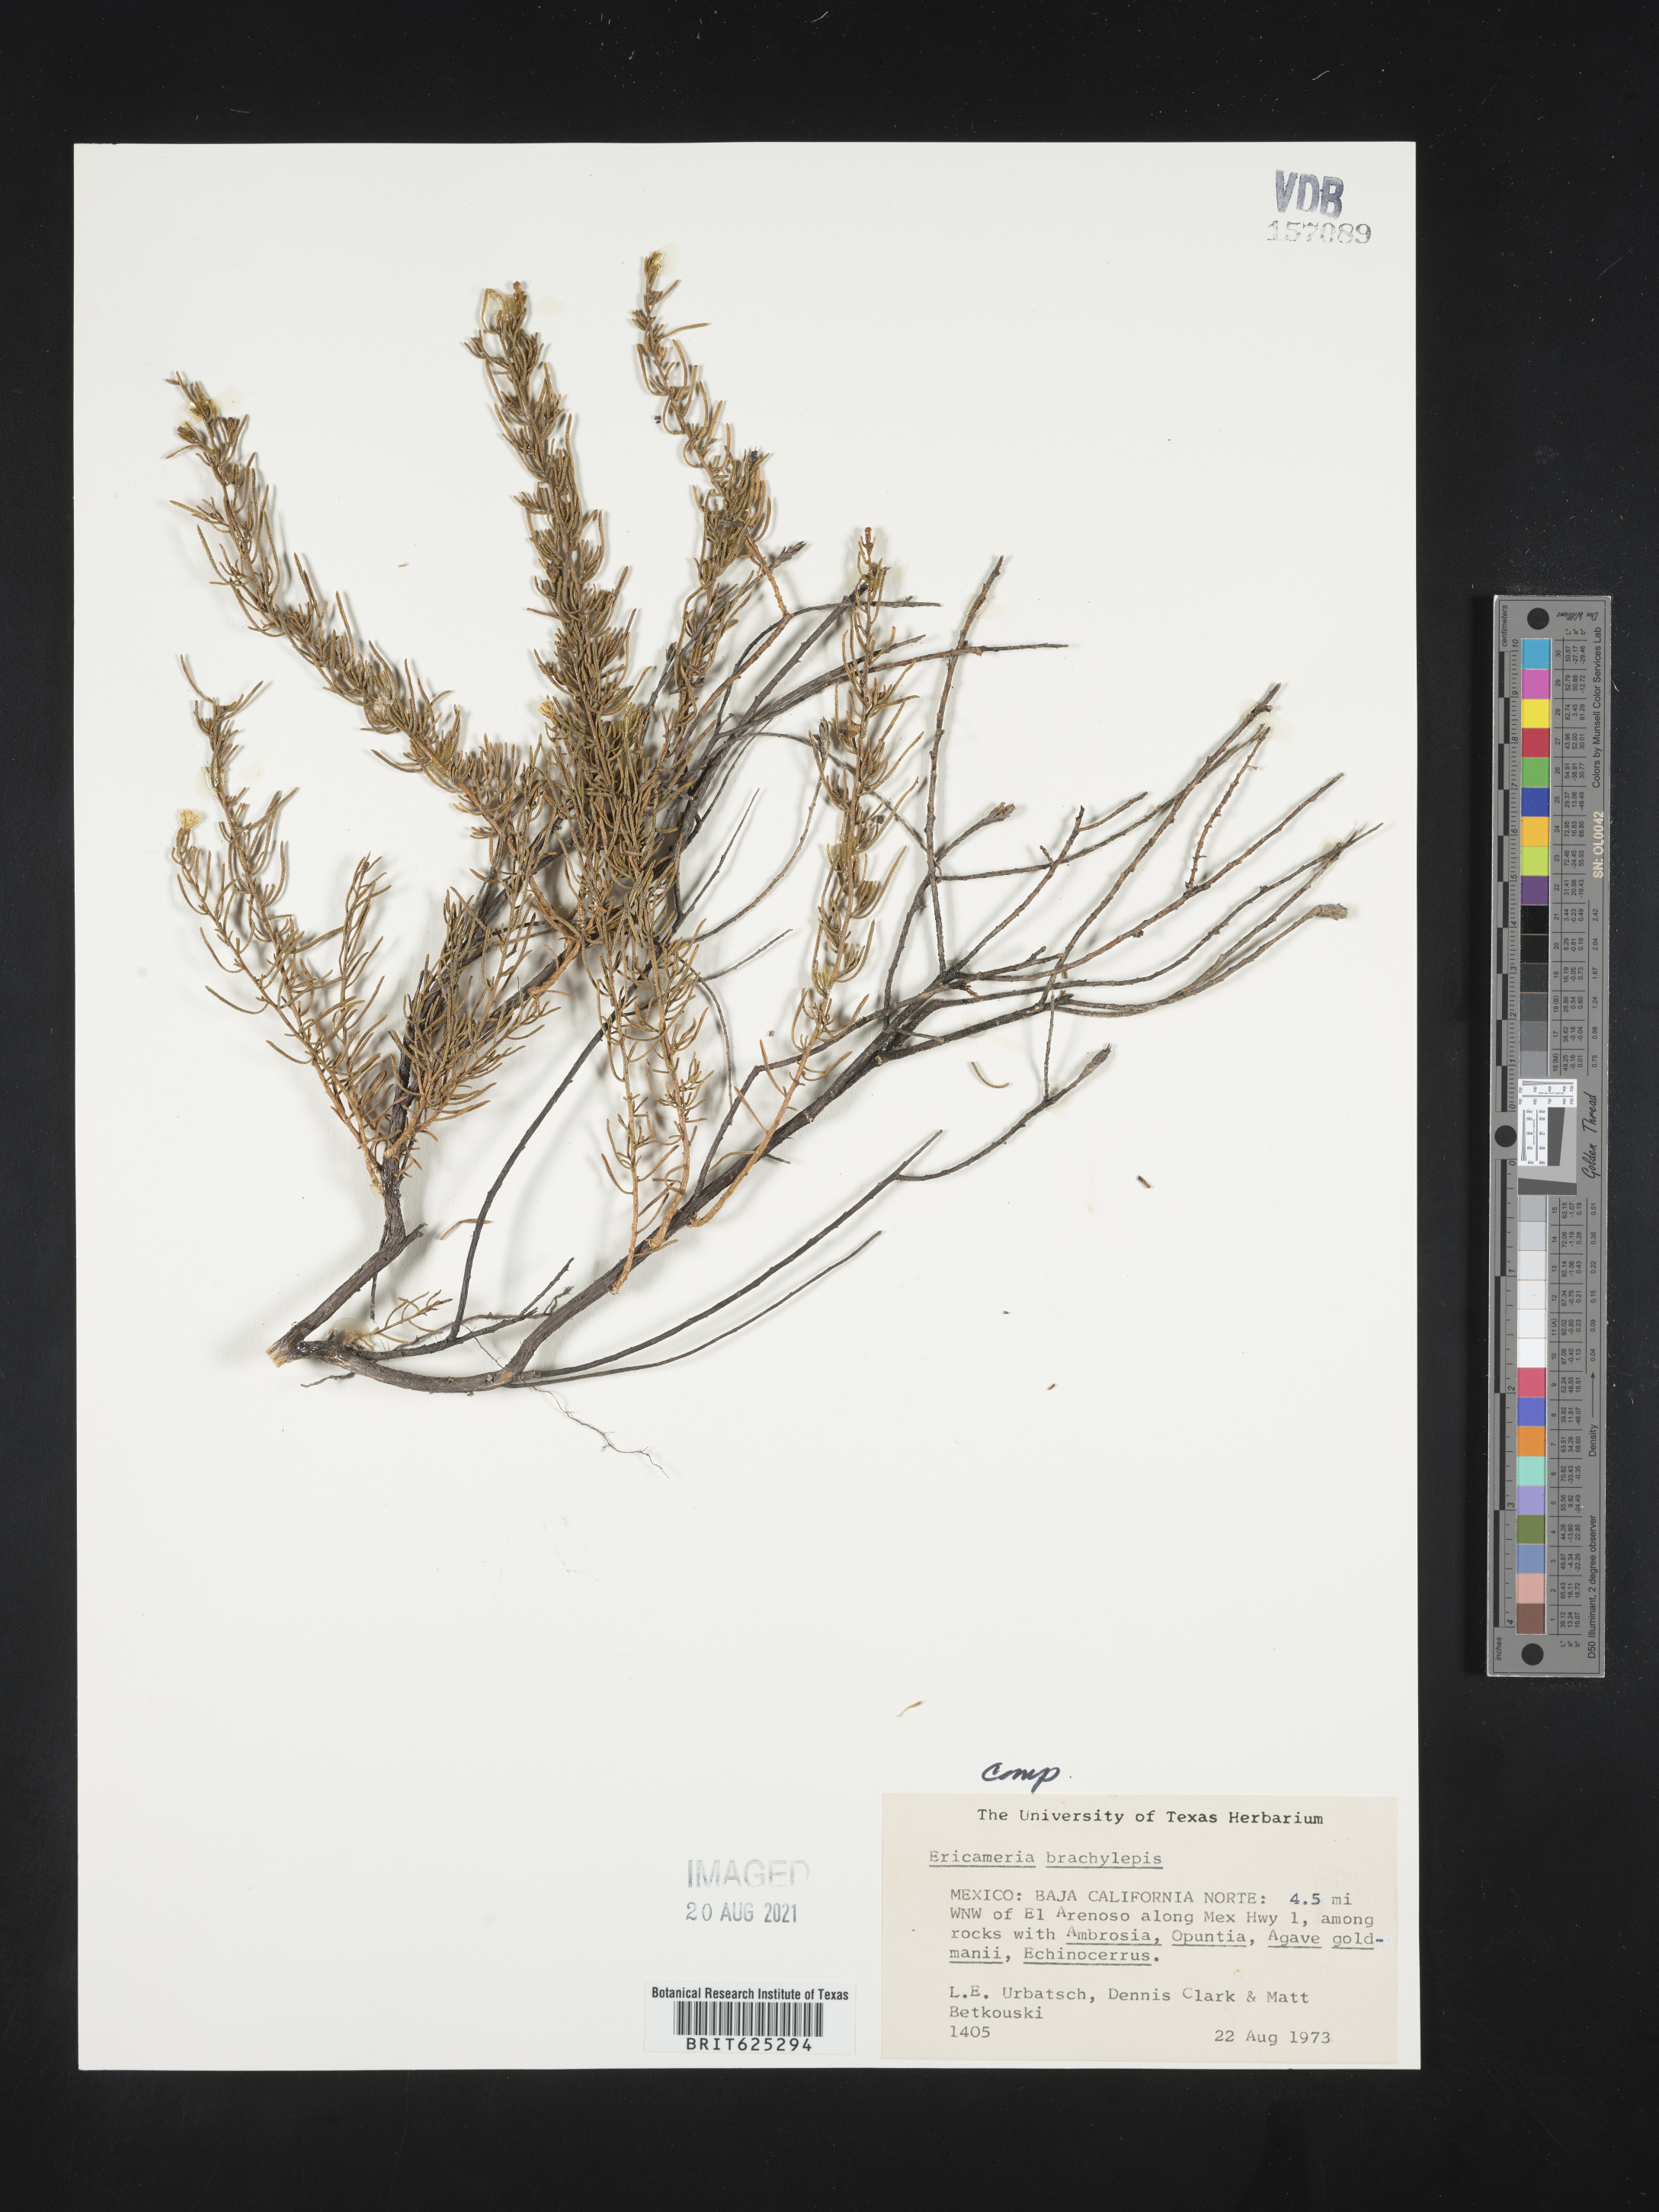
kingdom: Plantae
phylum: Tracheophyta
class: Magnoliopsida
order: Asterales
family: Asteraceae
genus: Ericameria
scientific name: Ericameria
